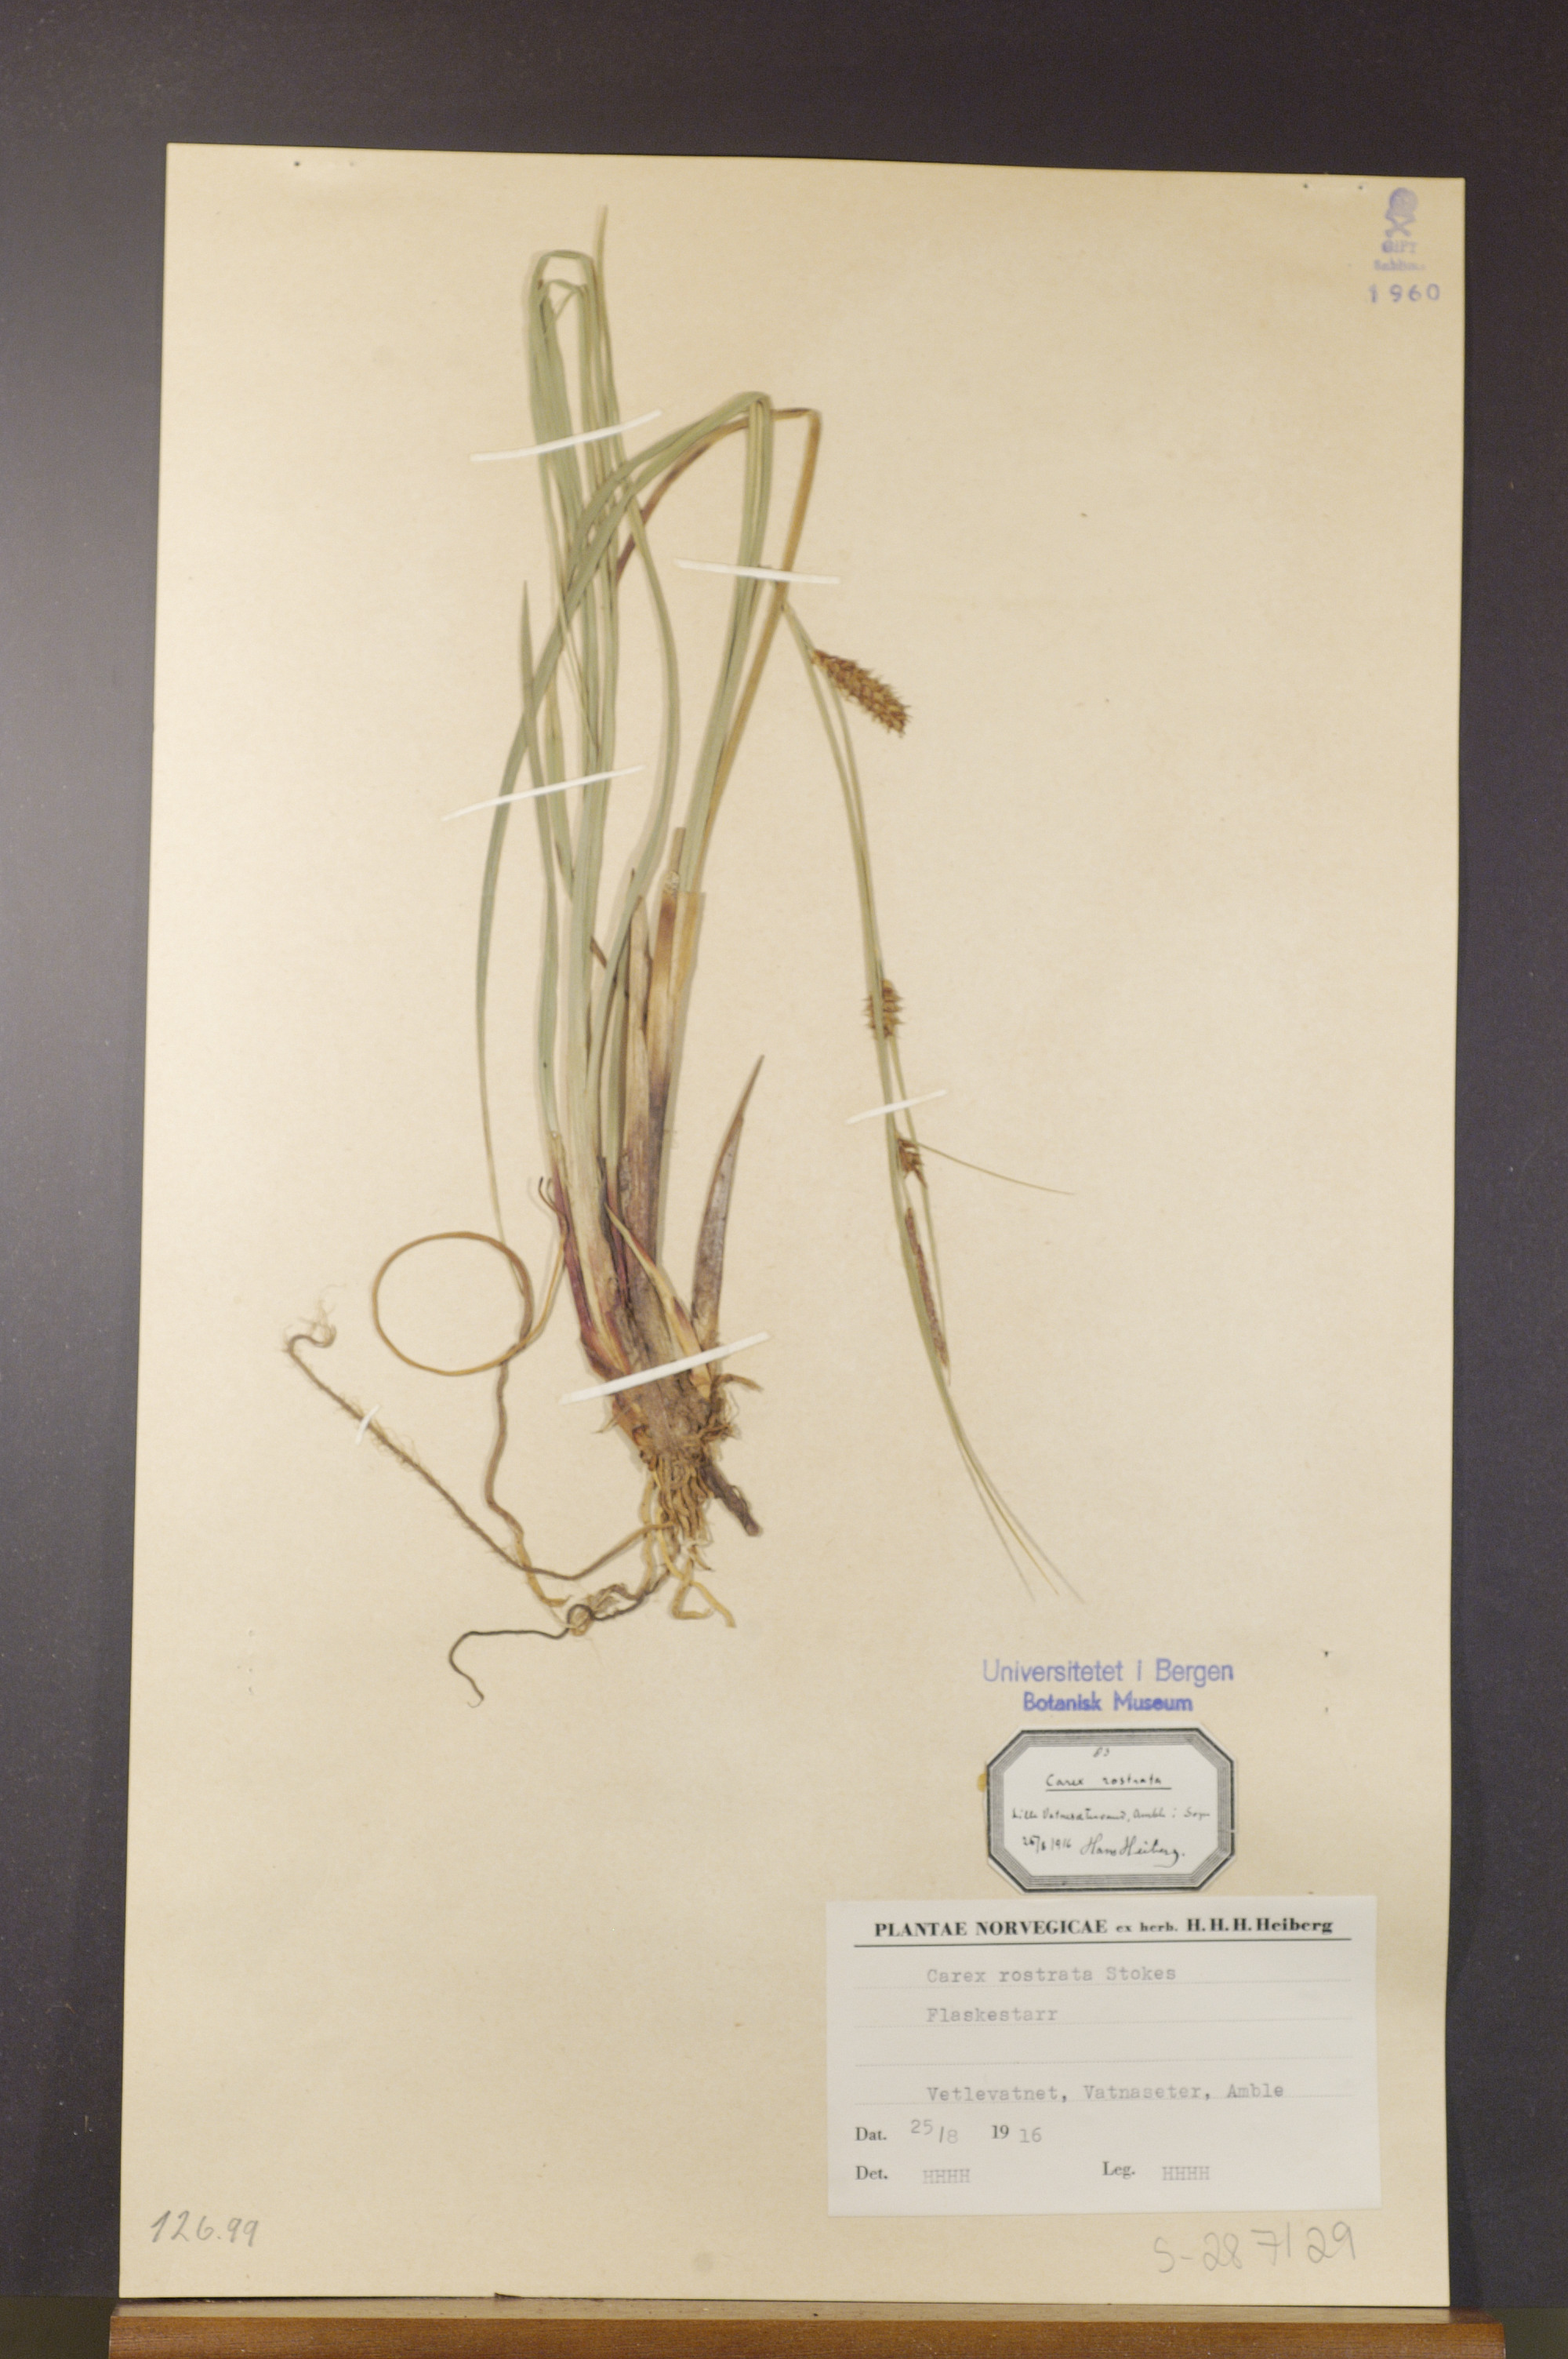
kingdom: Plantae
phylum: Tracheophyta
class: Liliopsida
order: Poales
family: Cyperaceae
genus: Carex
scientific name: Carex rostrata
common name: Bottle sedge
